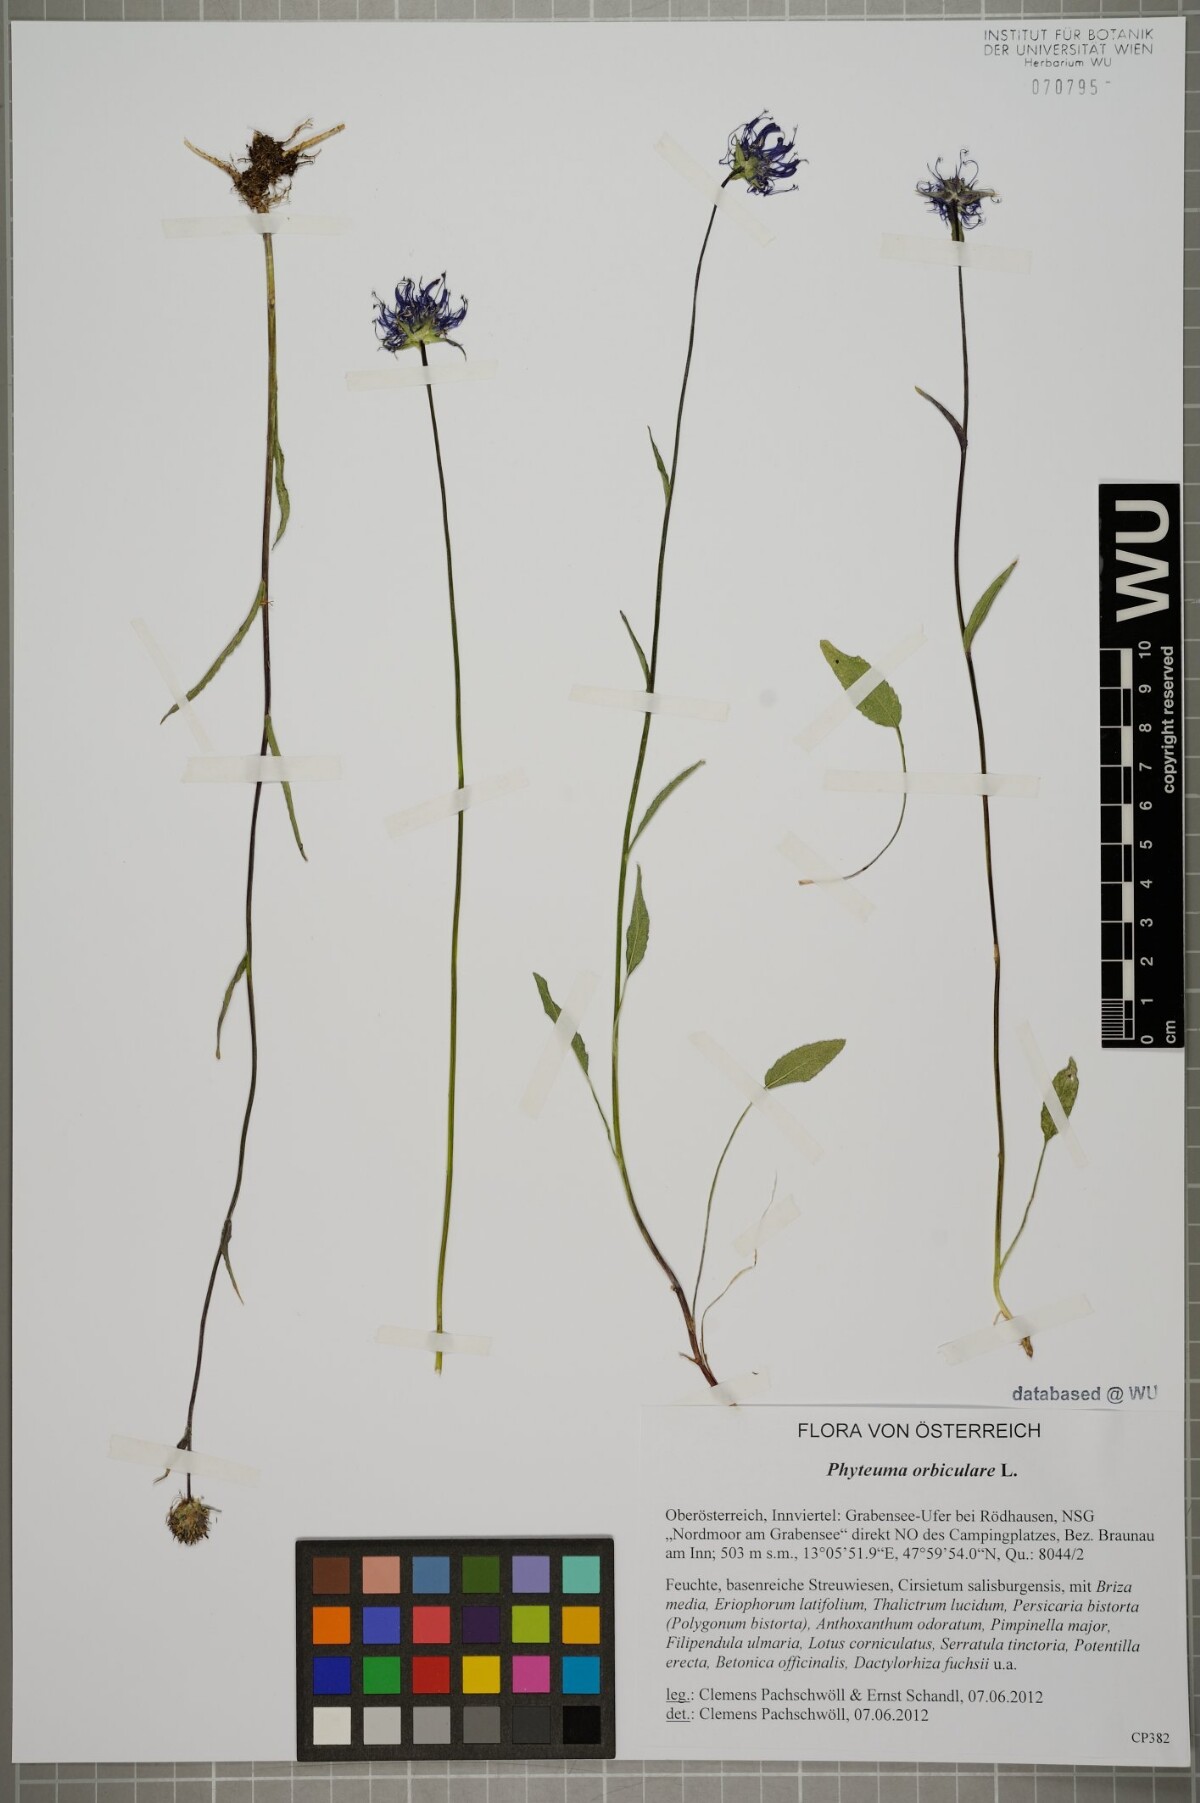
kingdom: Plantae
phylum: Tracheophyta
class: Magnoliopsida
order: Asterales
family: Campanulaceae
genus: Phyteuma
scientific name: Phyteuma orbiculare
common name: Round-headed rampion
